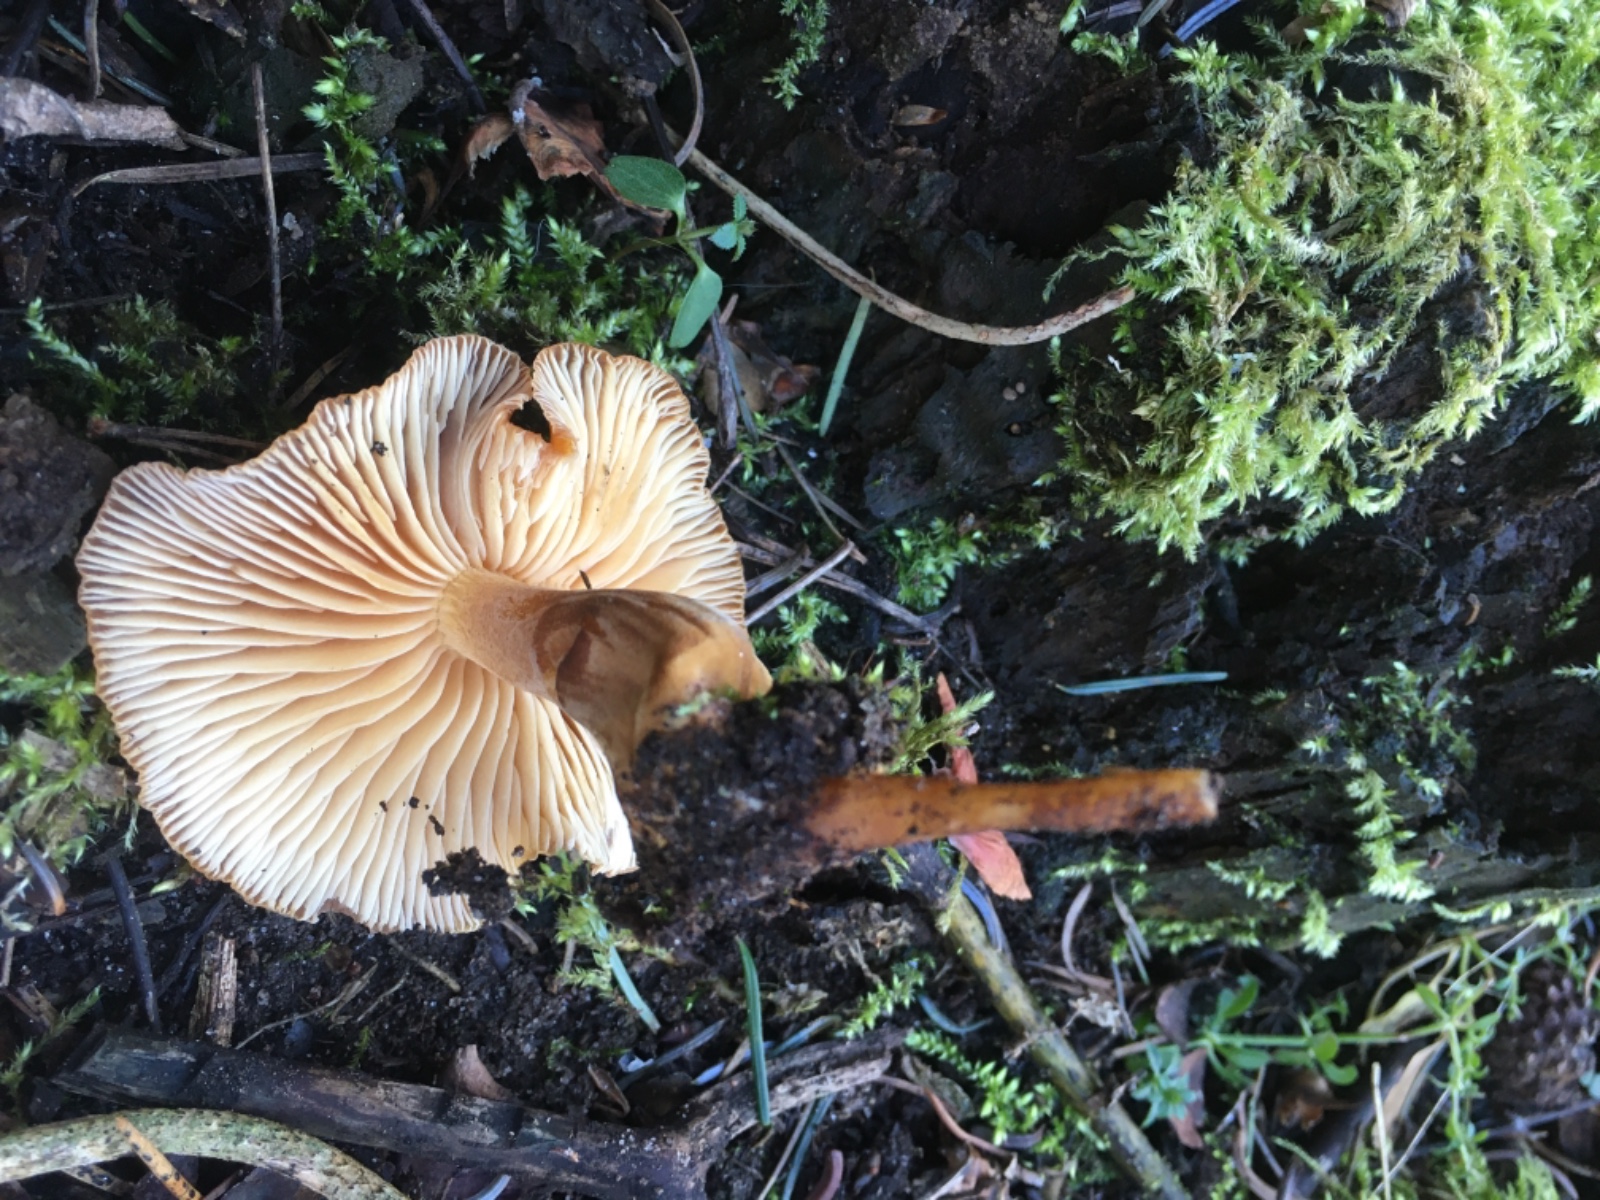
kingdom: Fungi
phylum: Basidiomycota
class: Agaricomycetes
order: Agaricales
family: Physalacriaceae
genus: Flammulina
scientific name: Flammulina
